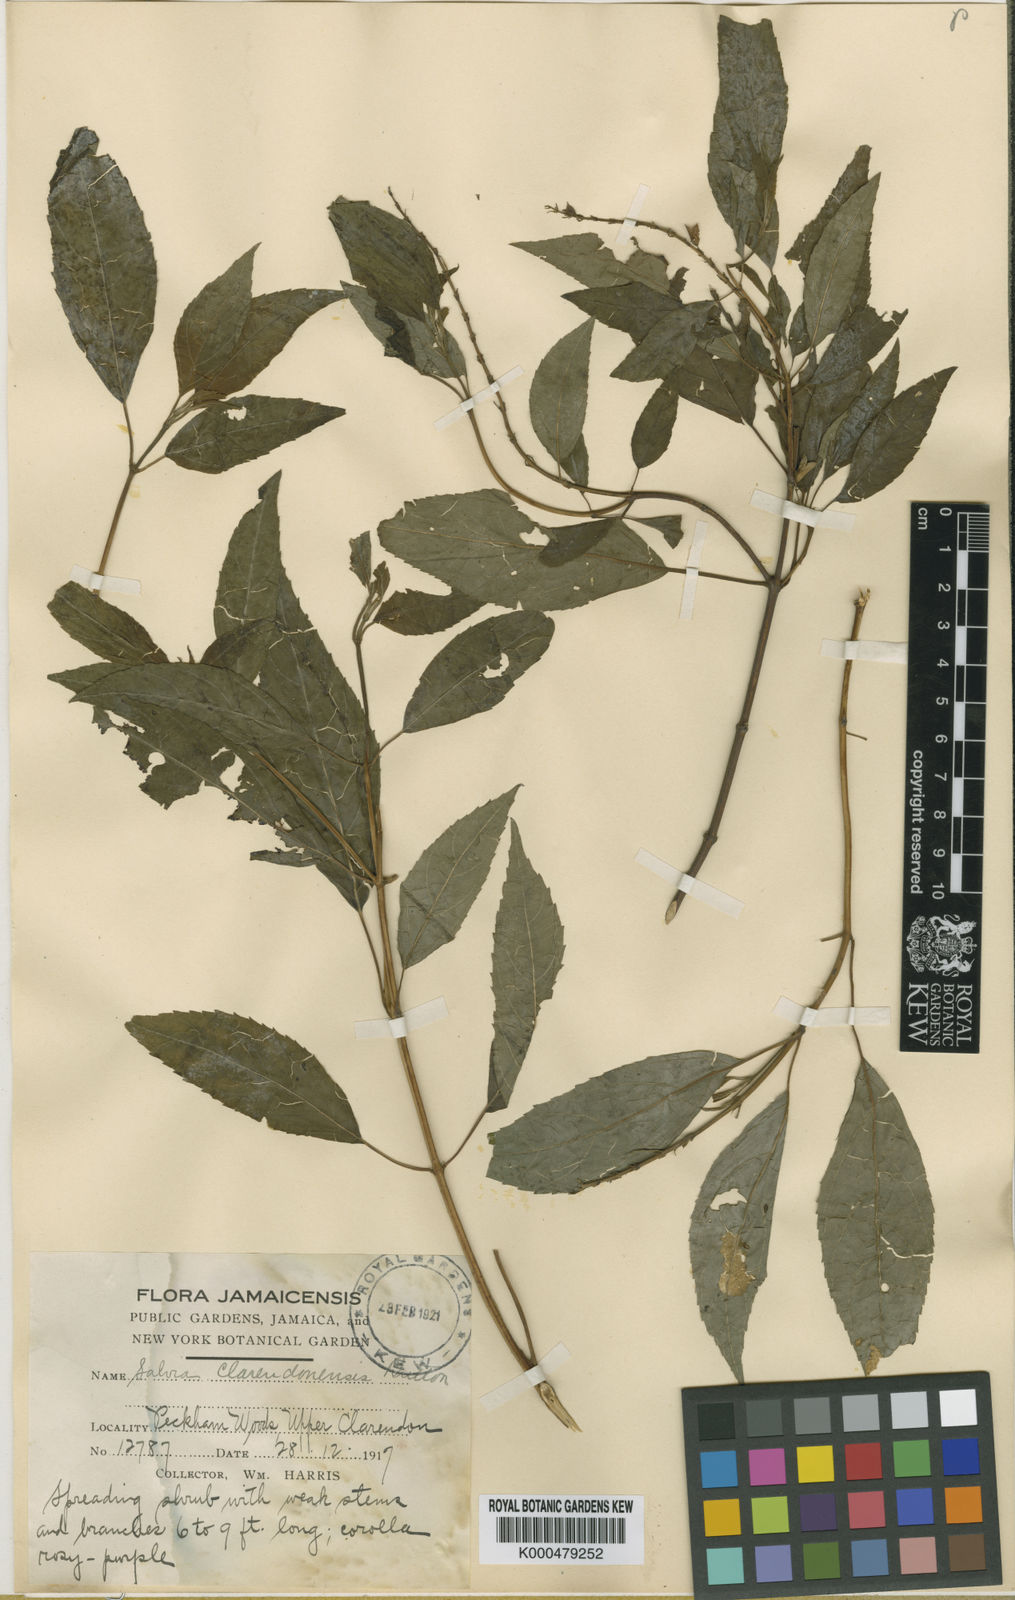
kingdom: Plantae
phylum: Tracheophyta
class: Magnoliopsida
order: Lamiales
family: Lamiaceae
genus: Salvia
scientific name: Salvia clarendonensis
